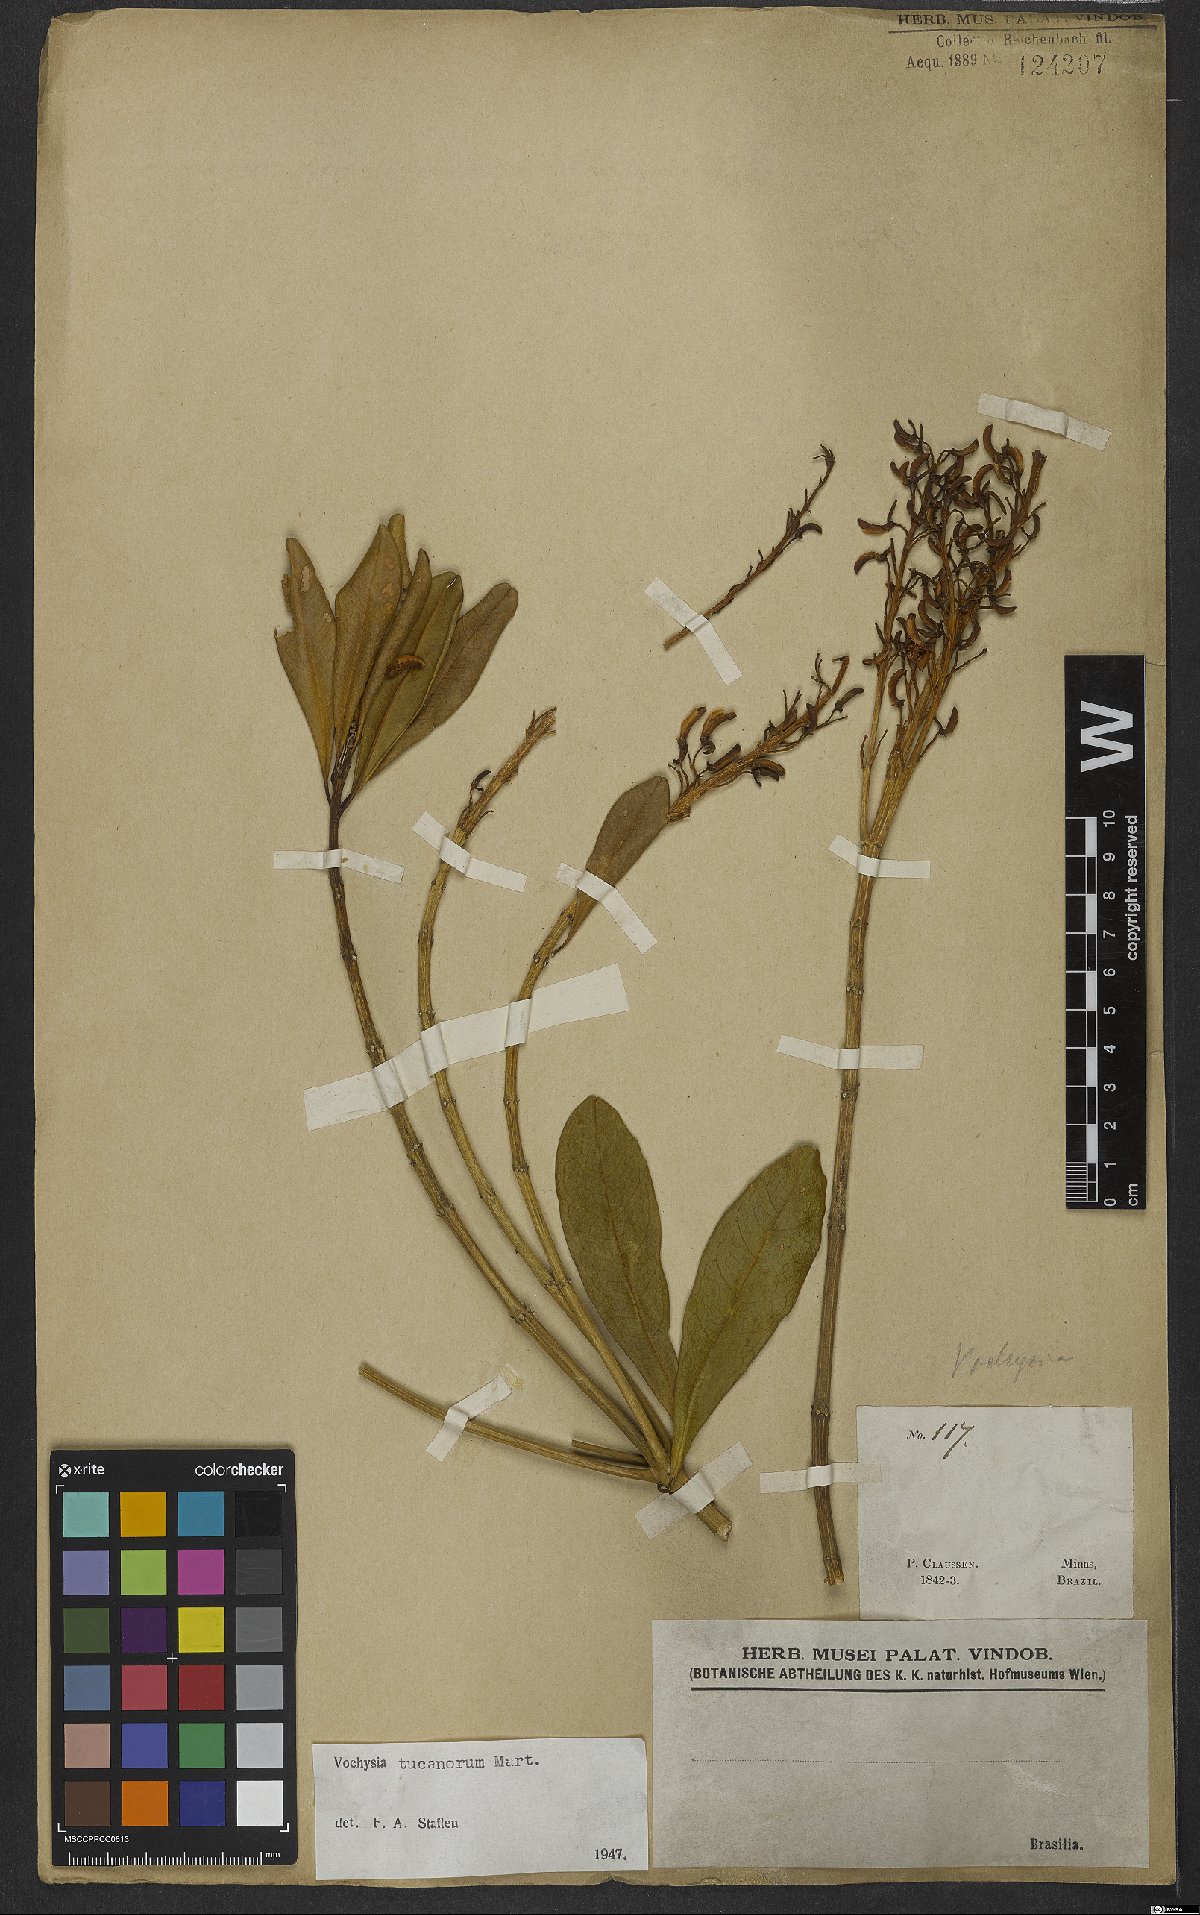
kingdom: Plantae
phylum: Tracheophyta
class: Magnoliopsida
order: Myrtales
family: Vochysiaceae
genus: Vochysia
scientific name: Vochysia tucanorum
